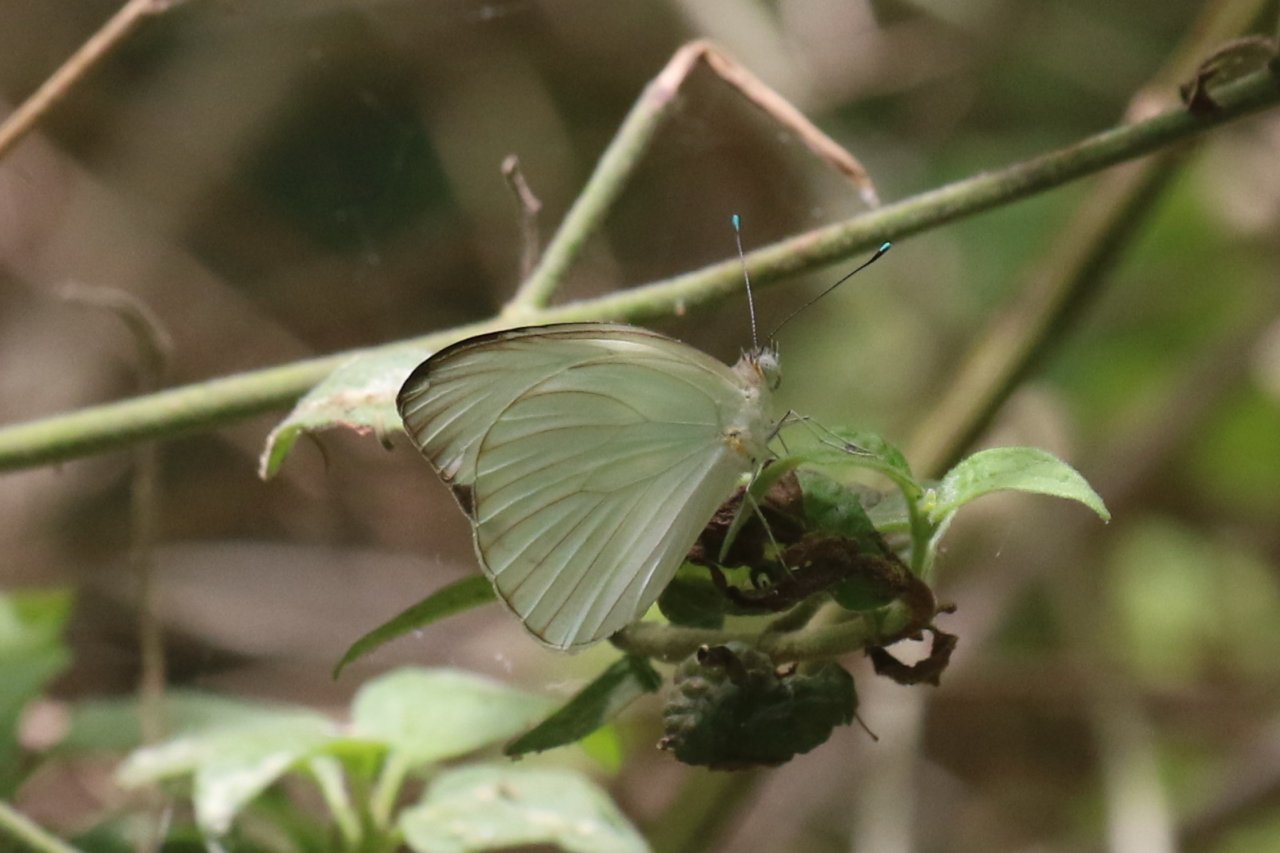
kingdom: Animalia
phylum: Arthropoda
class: Insecta
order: Lepidoptera
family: Pieridae
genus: Ascia
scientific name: Ascia monuste
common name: Great Southern White
